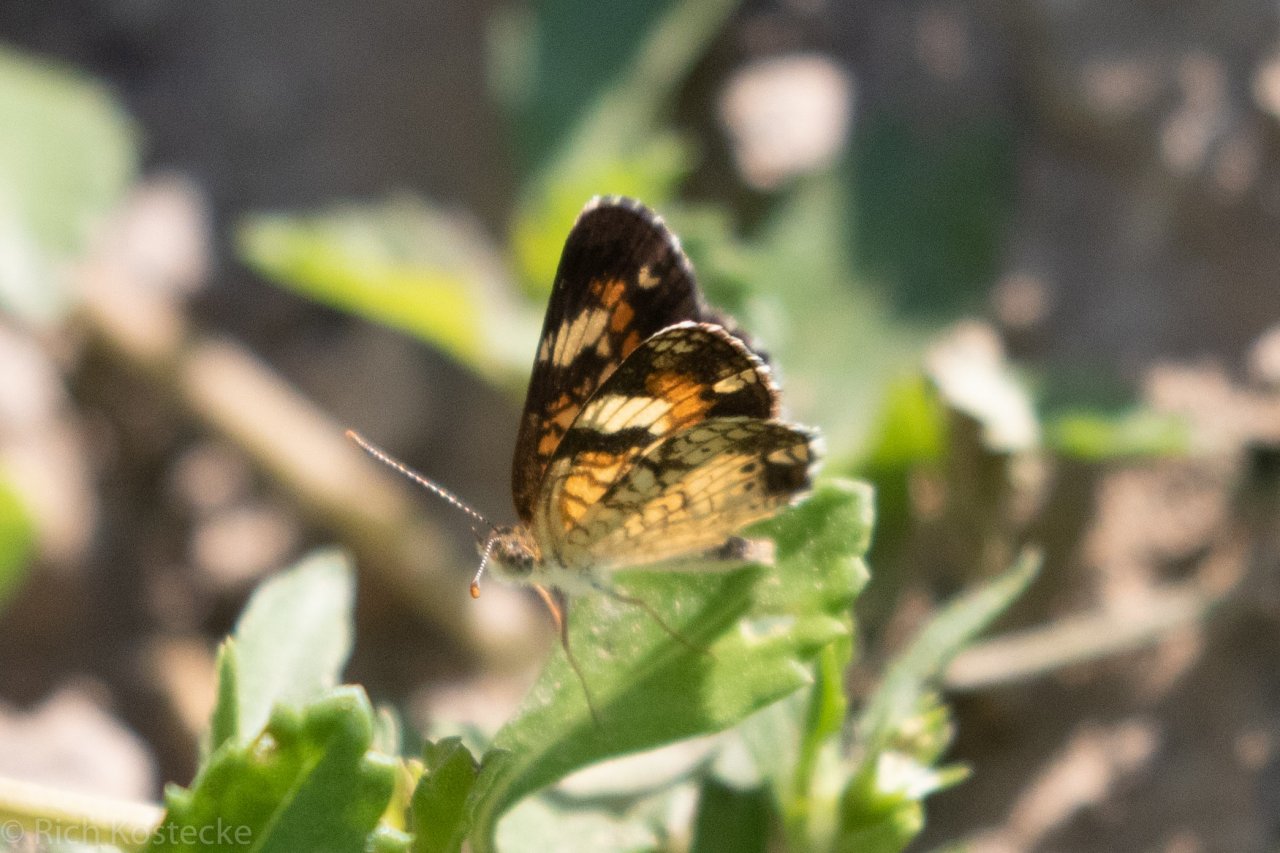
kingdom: Animalia
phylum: Arthropoda
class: Insecta
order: Lepidoptera
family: Nymphalidae
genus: Phyciodes
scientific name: Phyciodes phaon
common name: Phaon Crescent
